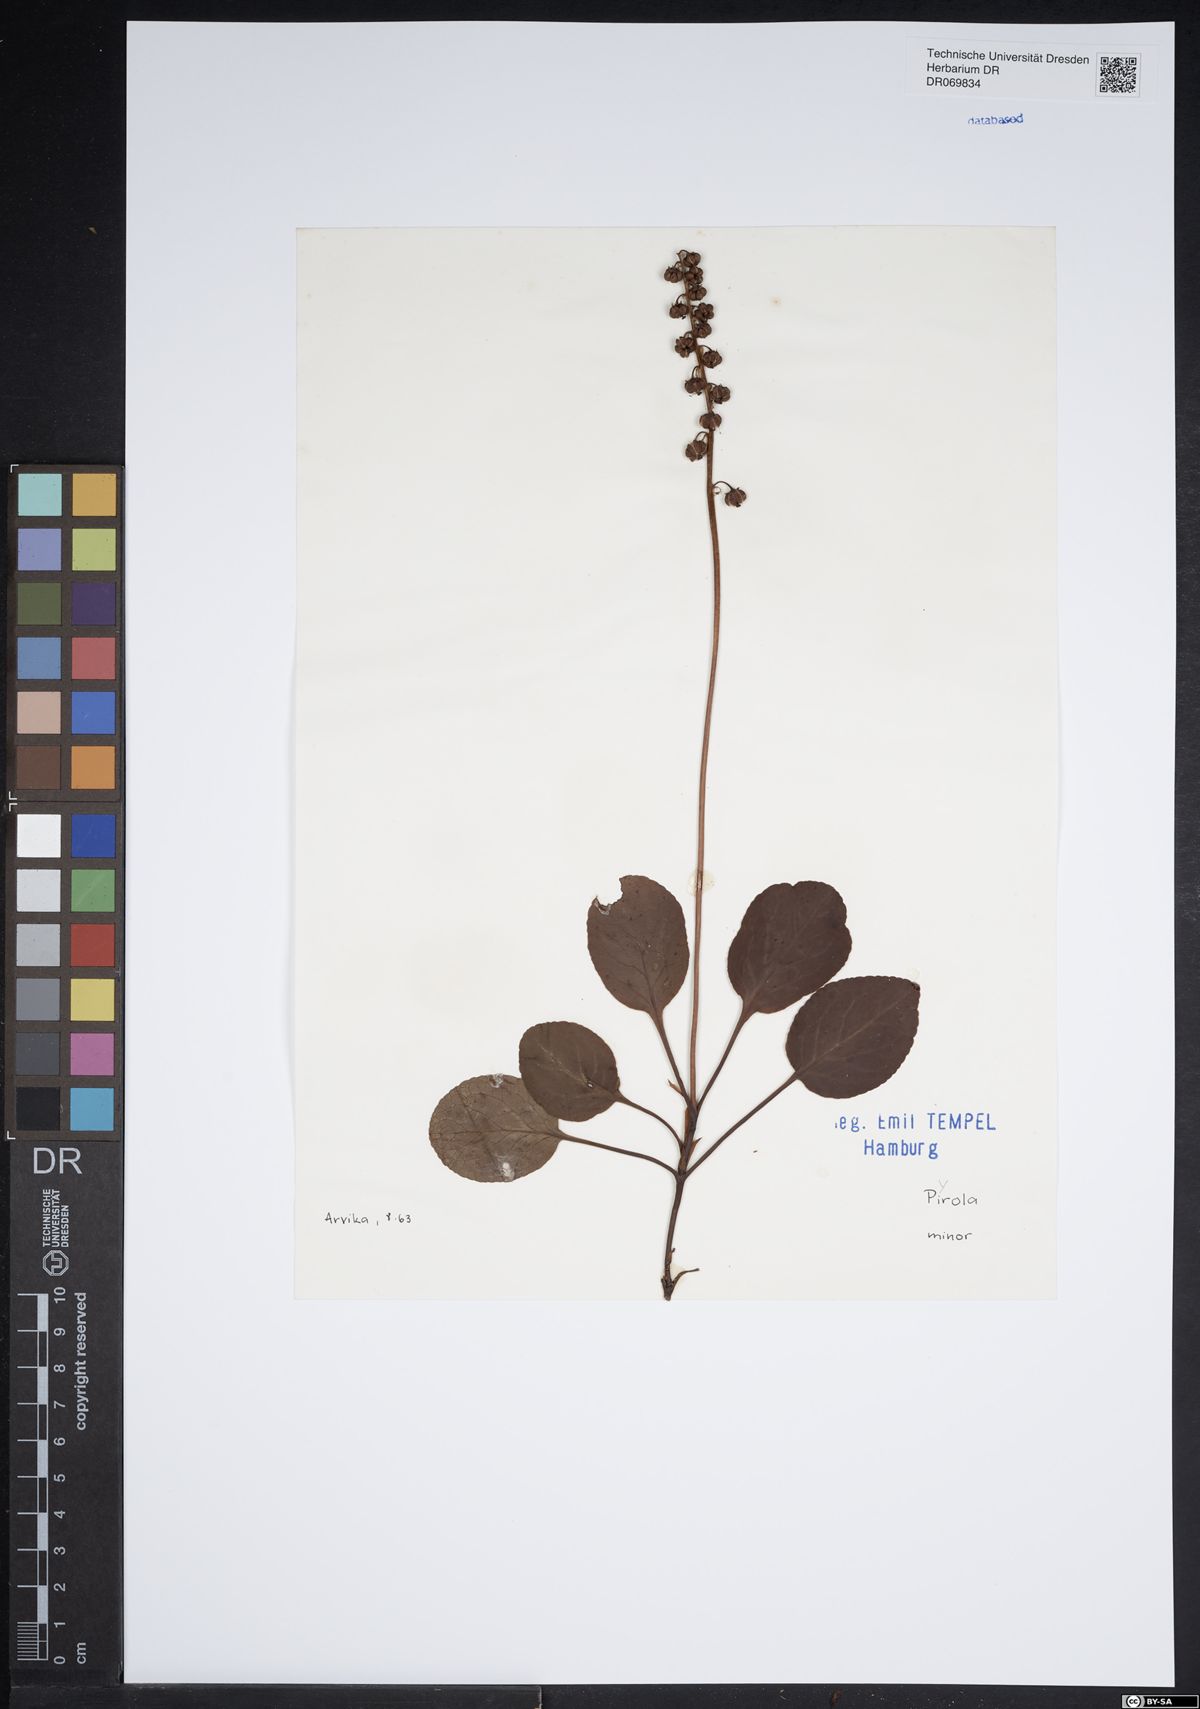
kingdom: Plantae
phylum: Tracheophyta
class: Magnoliopsida
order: Ericales
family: Ericaceae
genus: Pyrola
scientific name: Pyrola minor
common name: Common wintergreen
